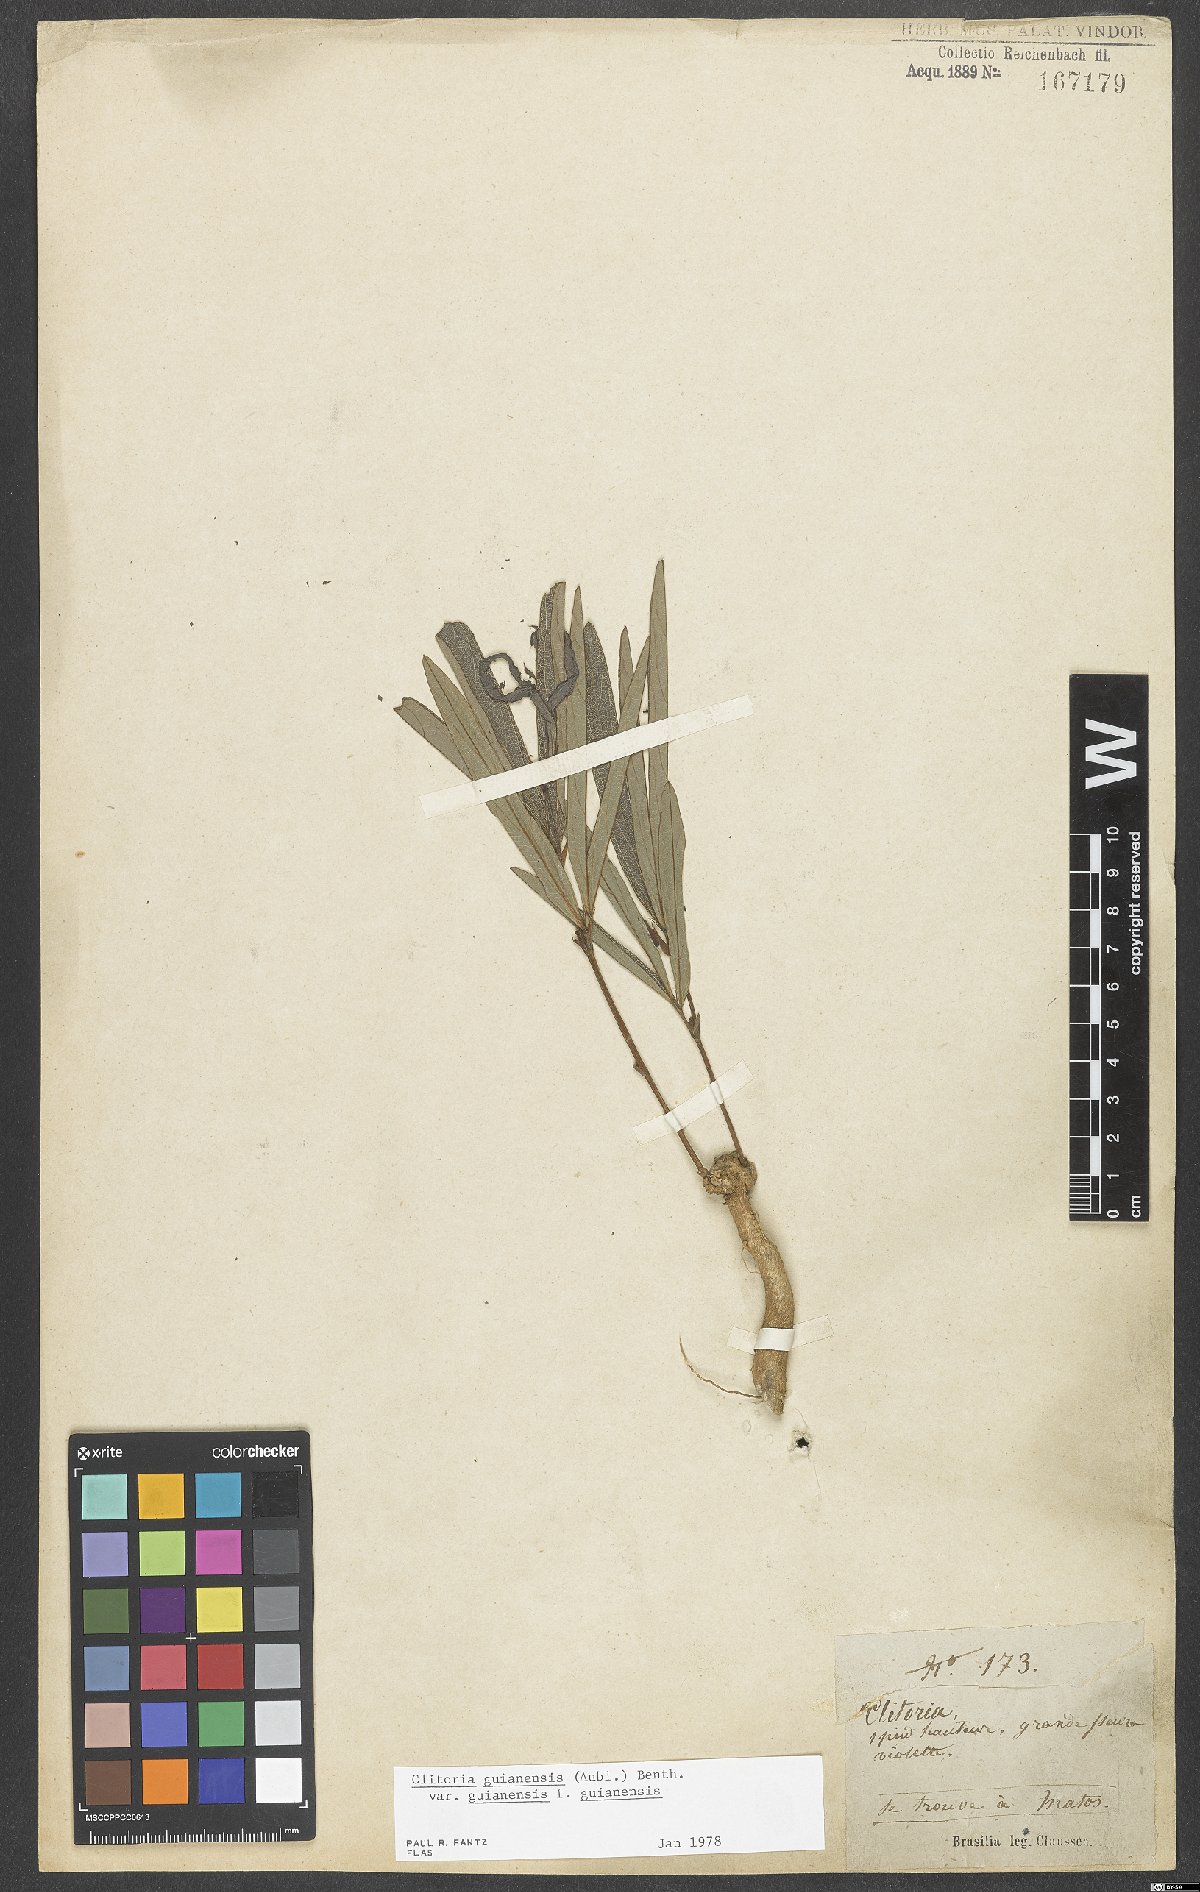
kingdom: Plantae
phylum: Tracheophyta
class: Magnoliopsida
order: Fabales
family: Fabaceae
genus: Clitoria
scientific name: Clitoria guianensis
